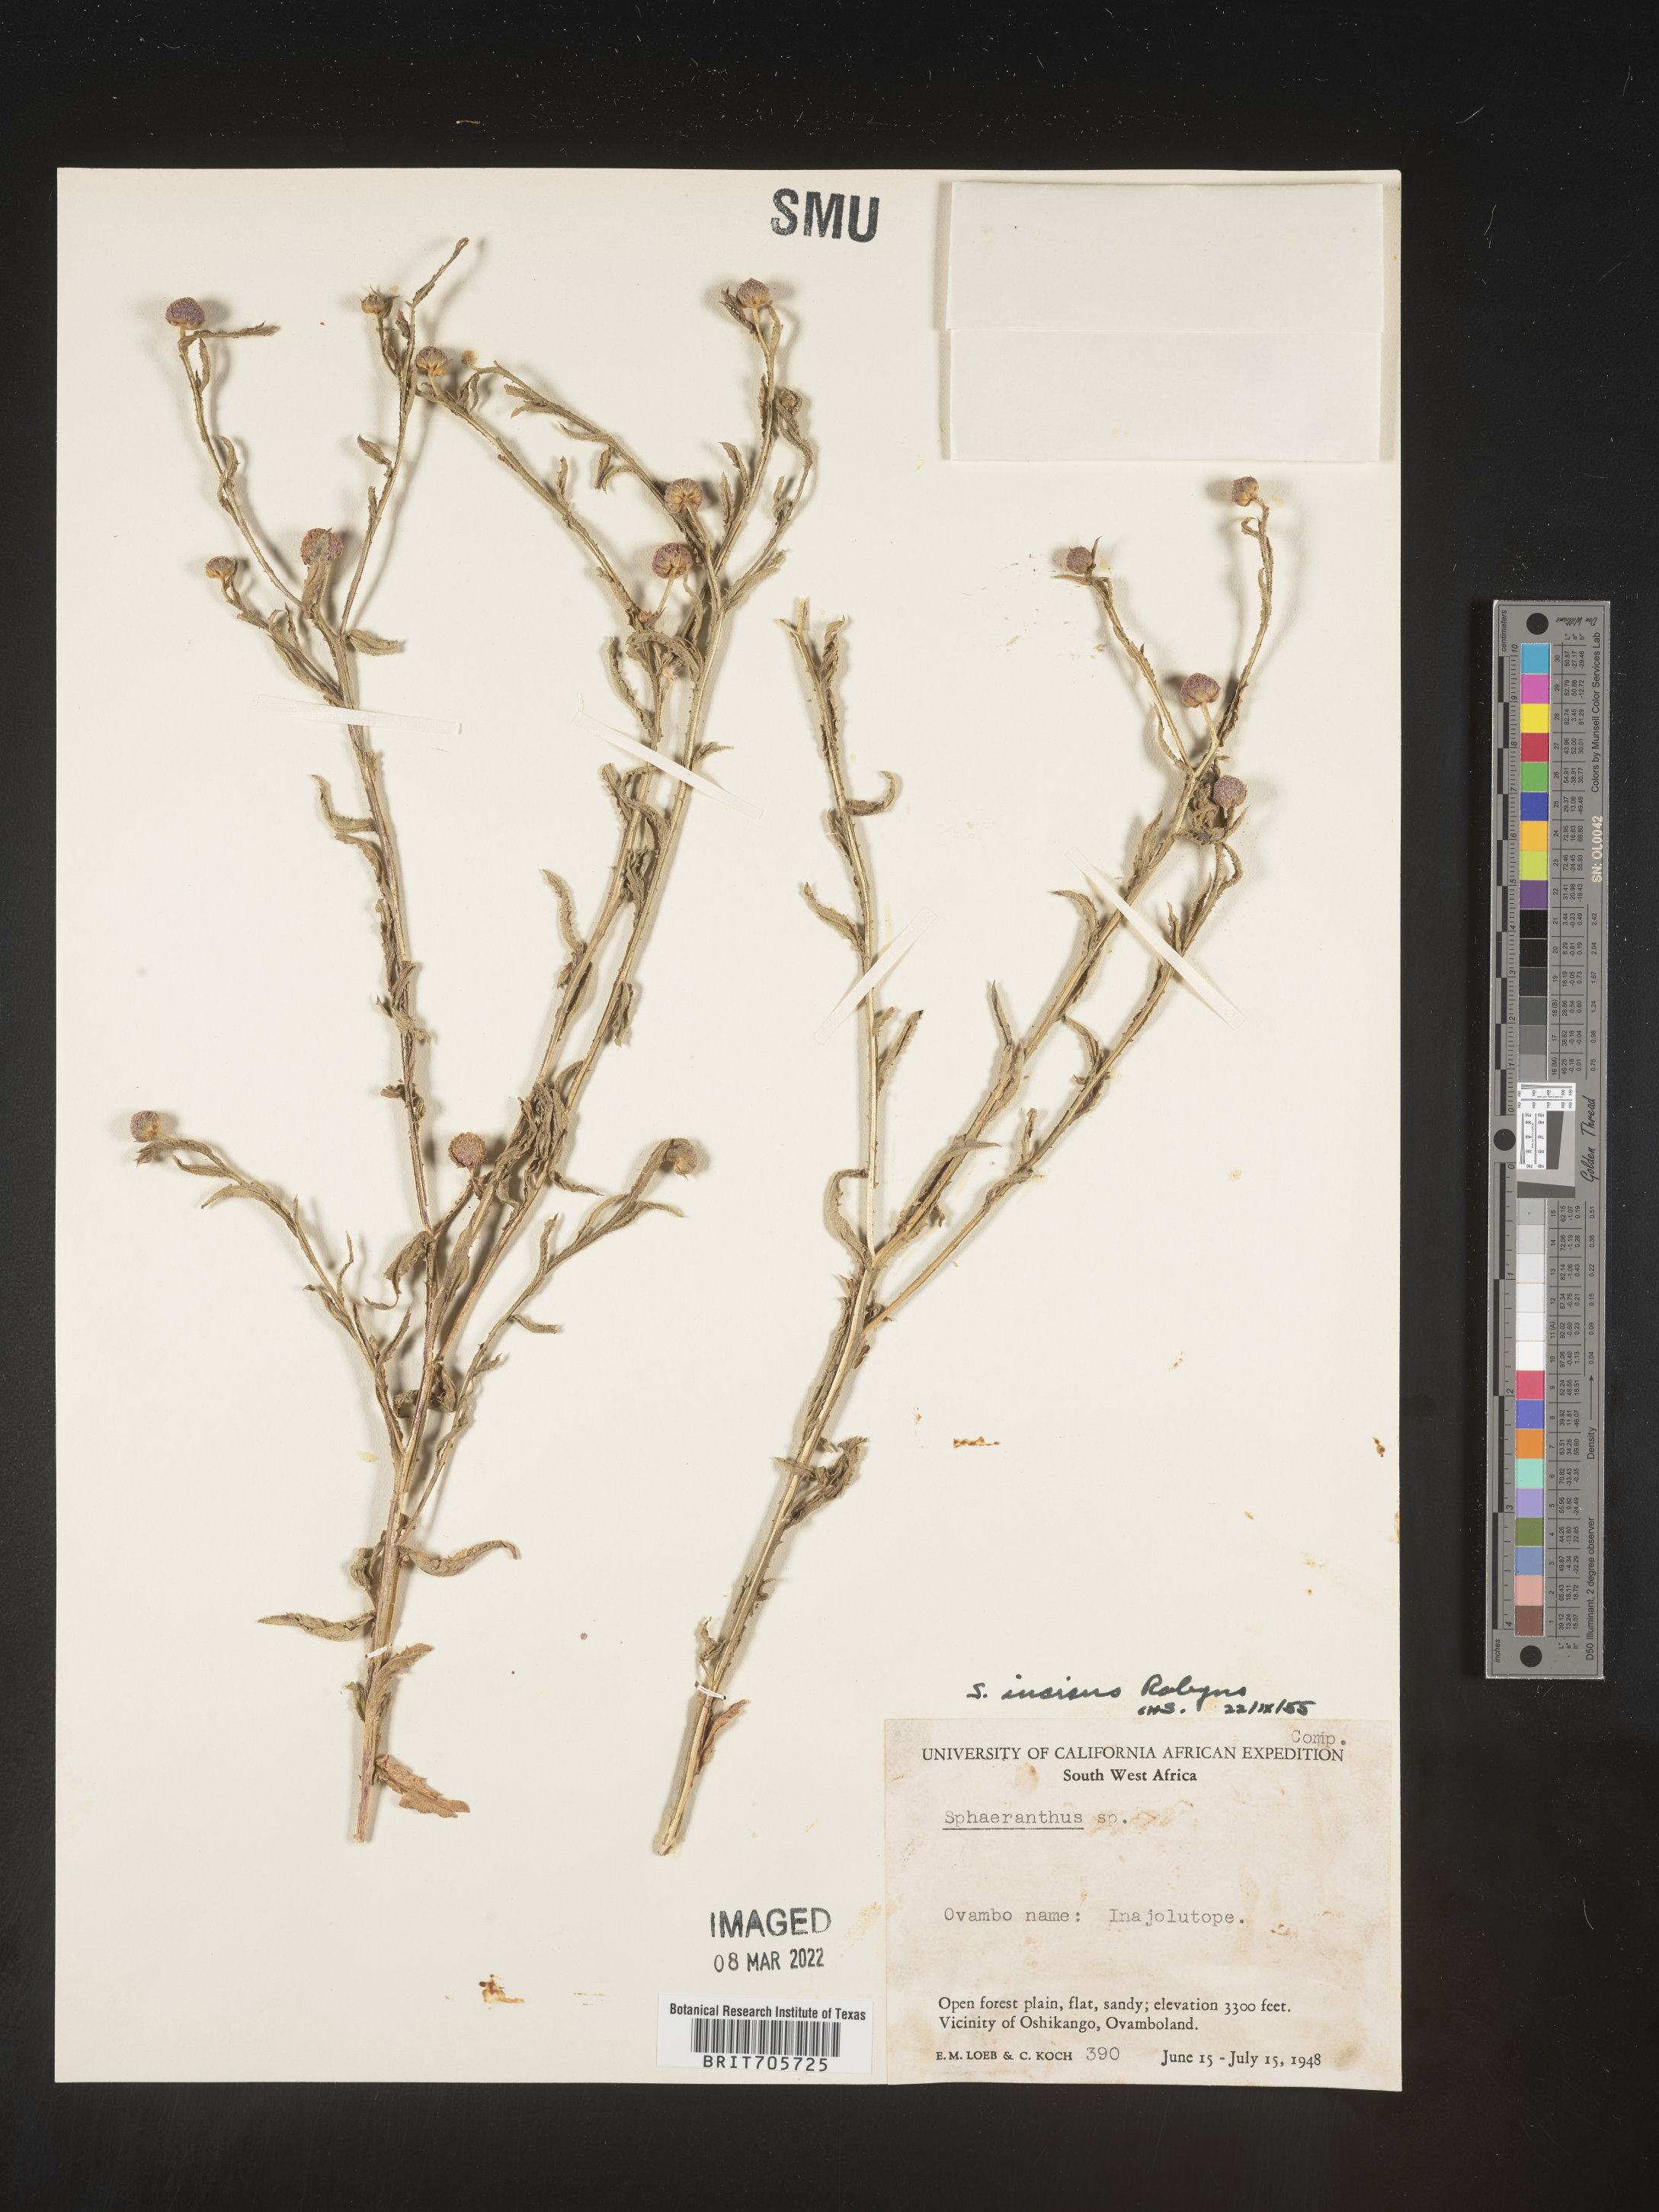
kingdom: Plantae
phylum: Tracheophyta
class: Magnoliopsida
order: Asterales
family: Asteraceae
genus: Sphaeranthus
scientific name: Sphaeranthus
